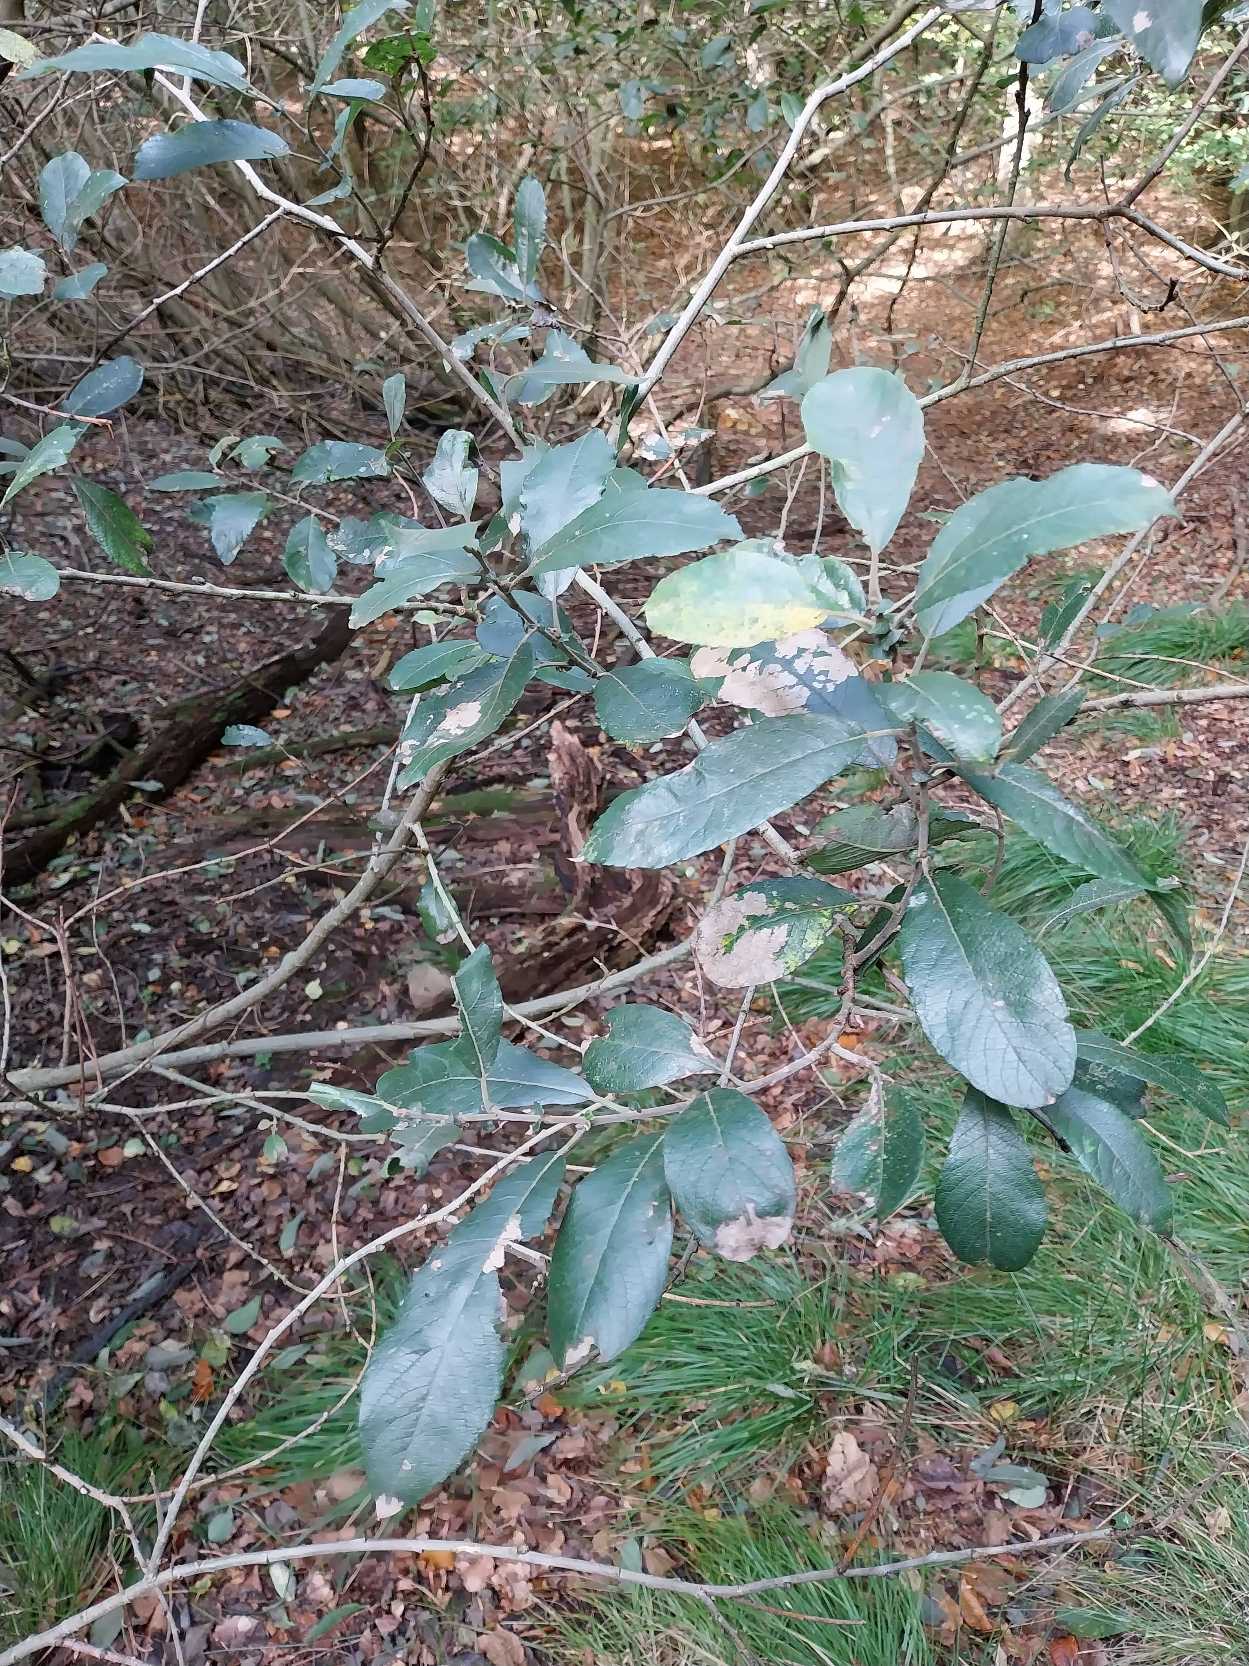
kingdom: Plantae
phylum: Tracheophyta
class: Magnoliopsida
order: Malpighiales
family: Salicaceae
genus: Salix
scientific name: Salix cinerea
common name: Grå-pil
